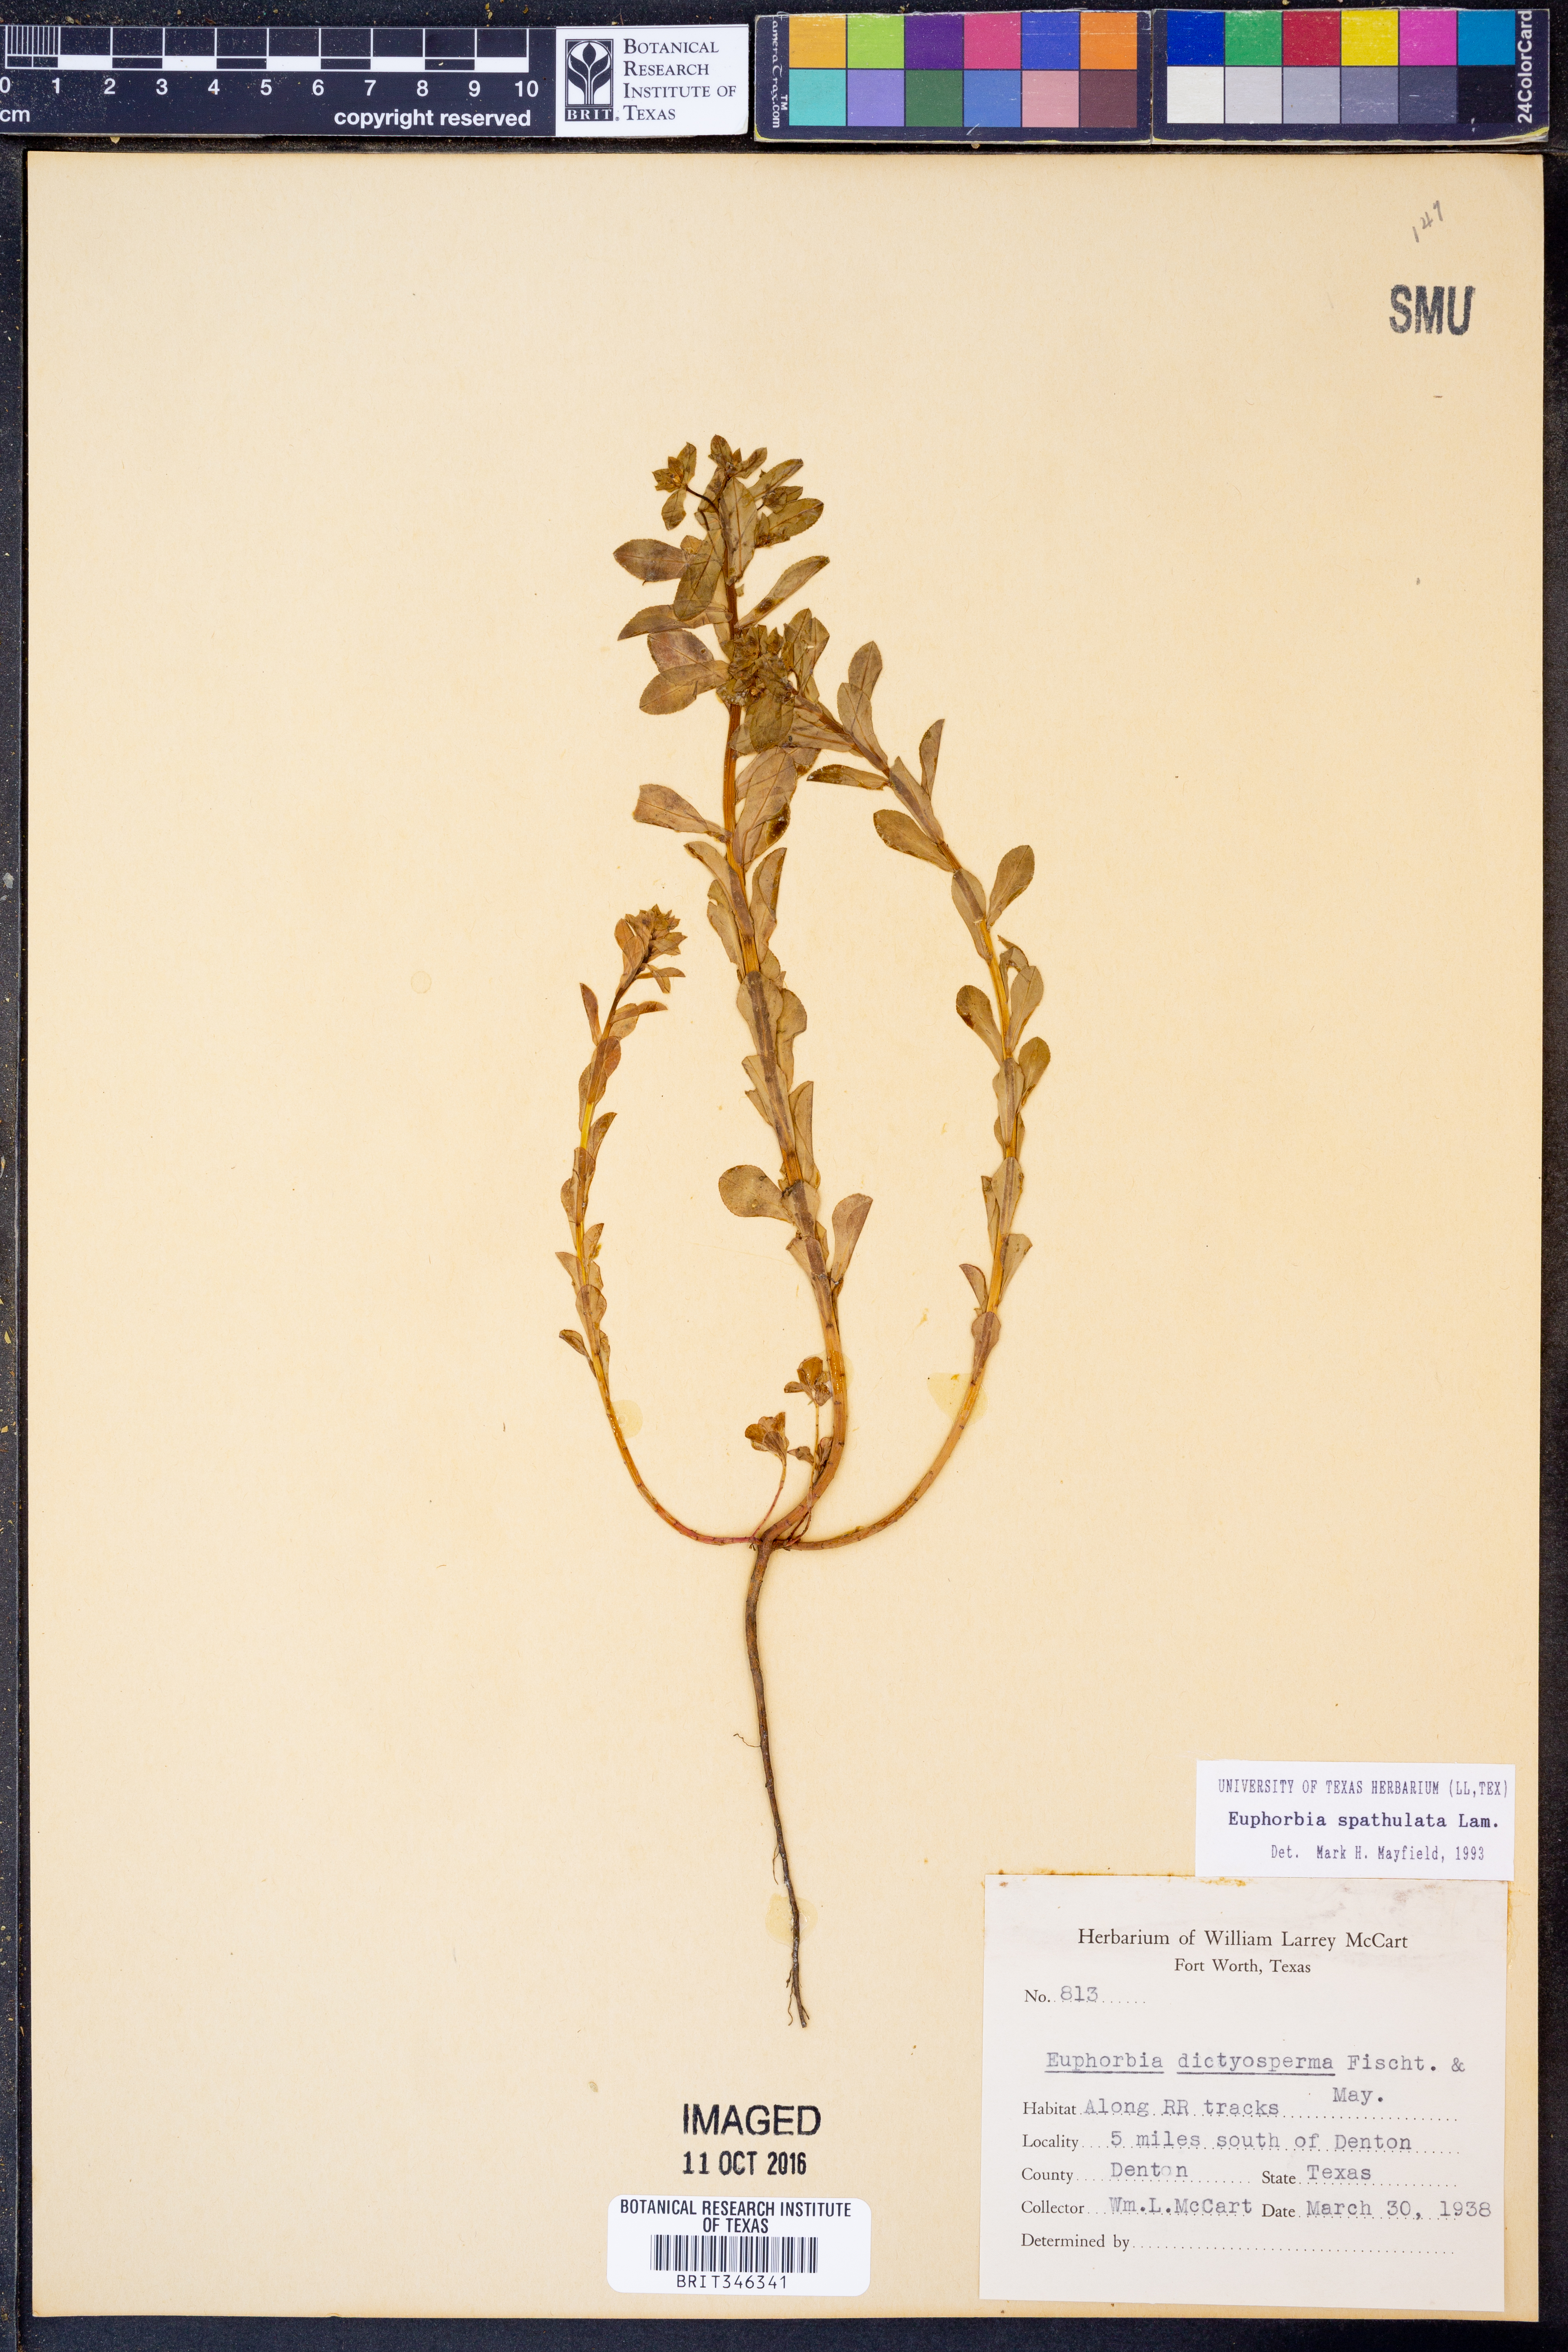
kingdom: Plantae
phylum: Tracheophyta
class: Magnoliopsida
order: Malpighiales
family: Euphorbiaceae
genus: Euphorbia
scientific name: Euphorbia spathulata
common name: Blunt spurge
